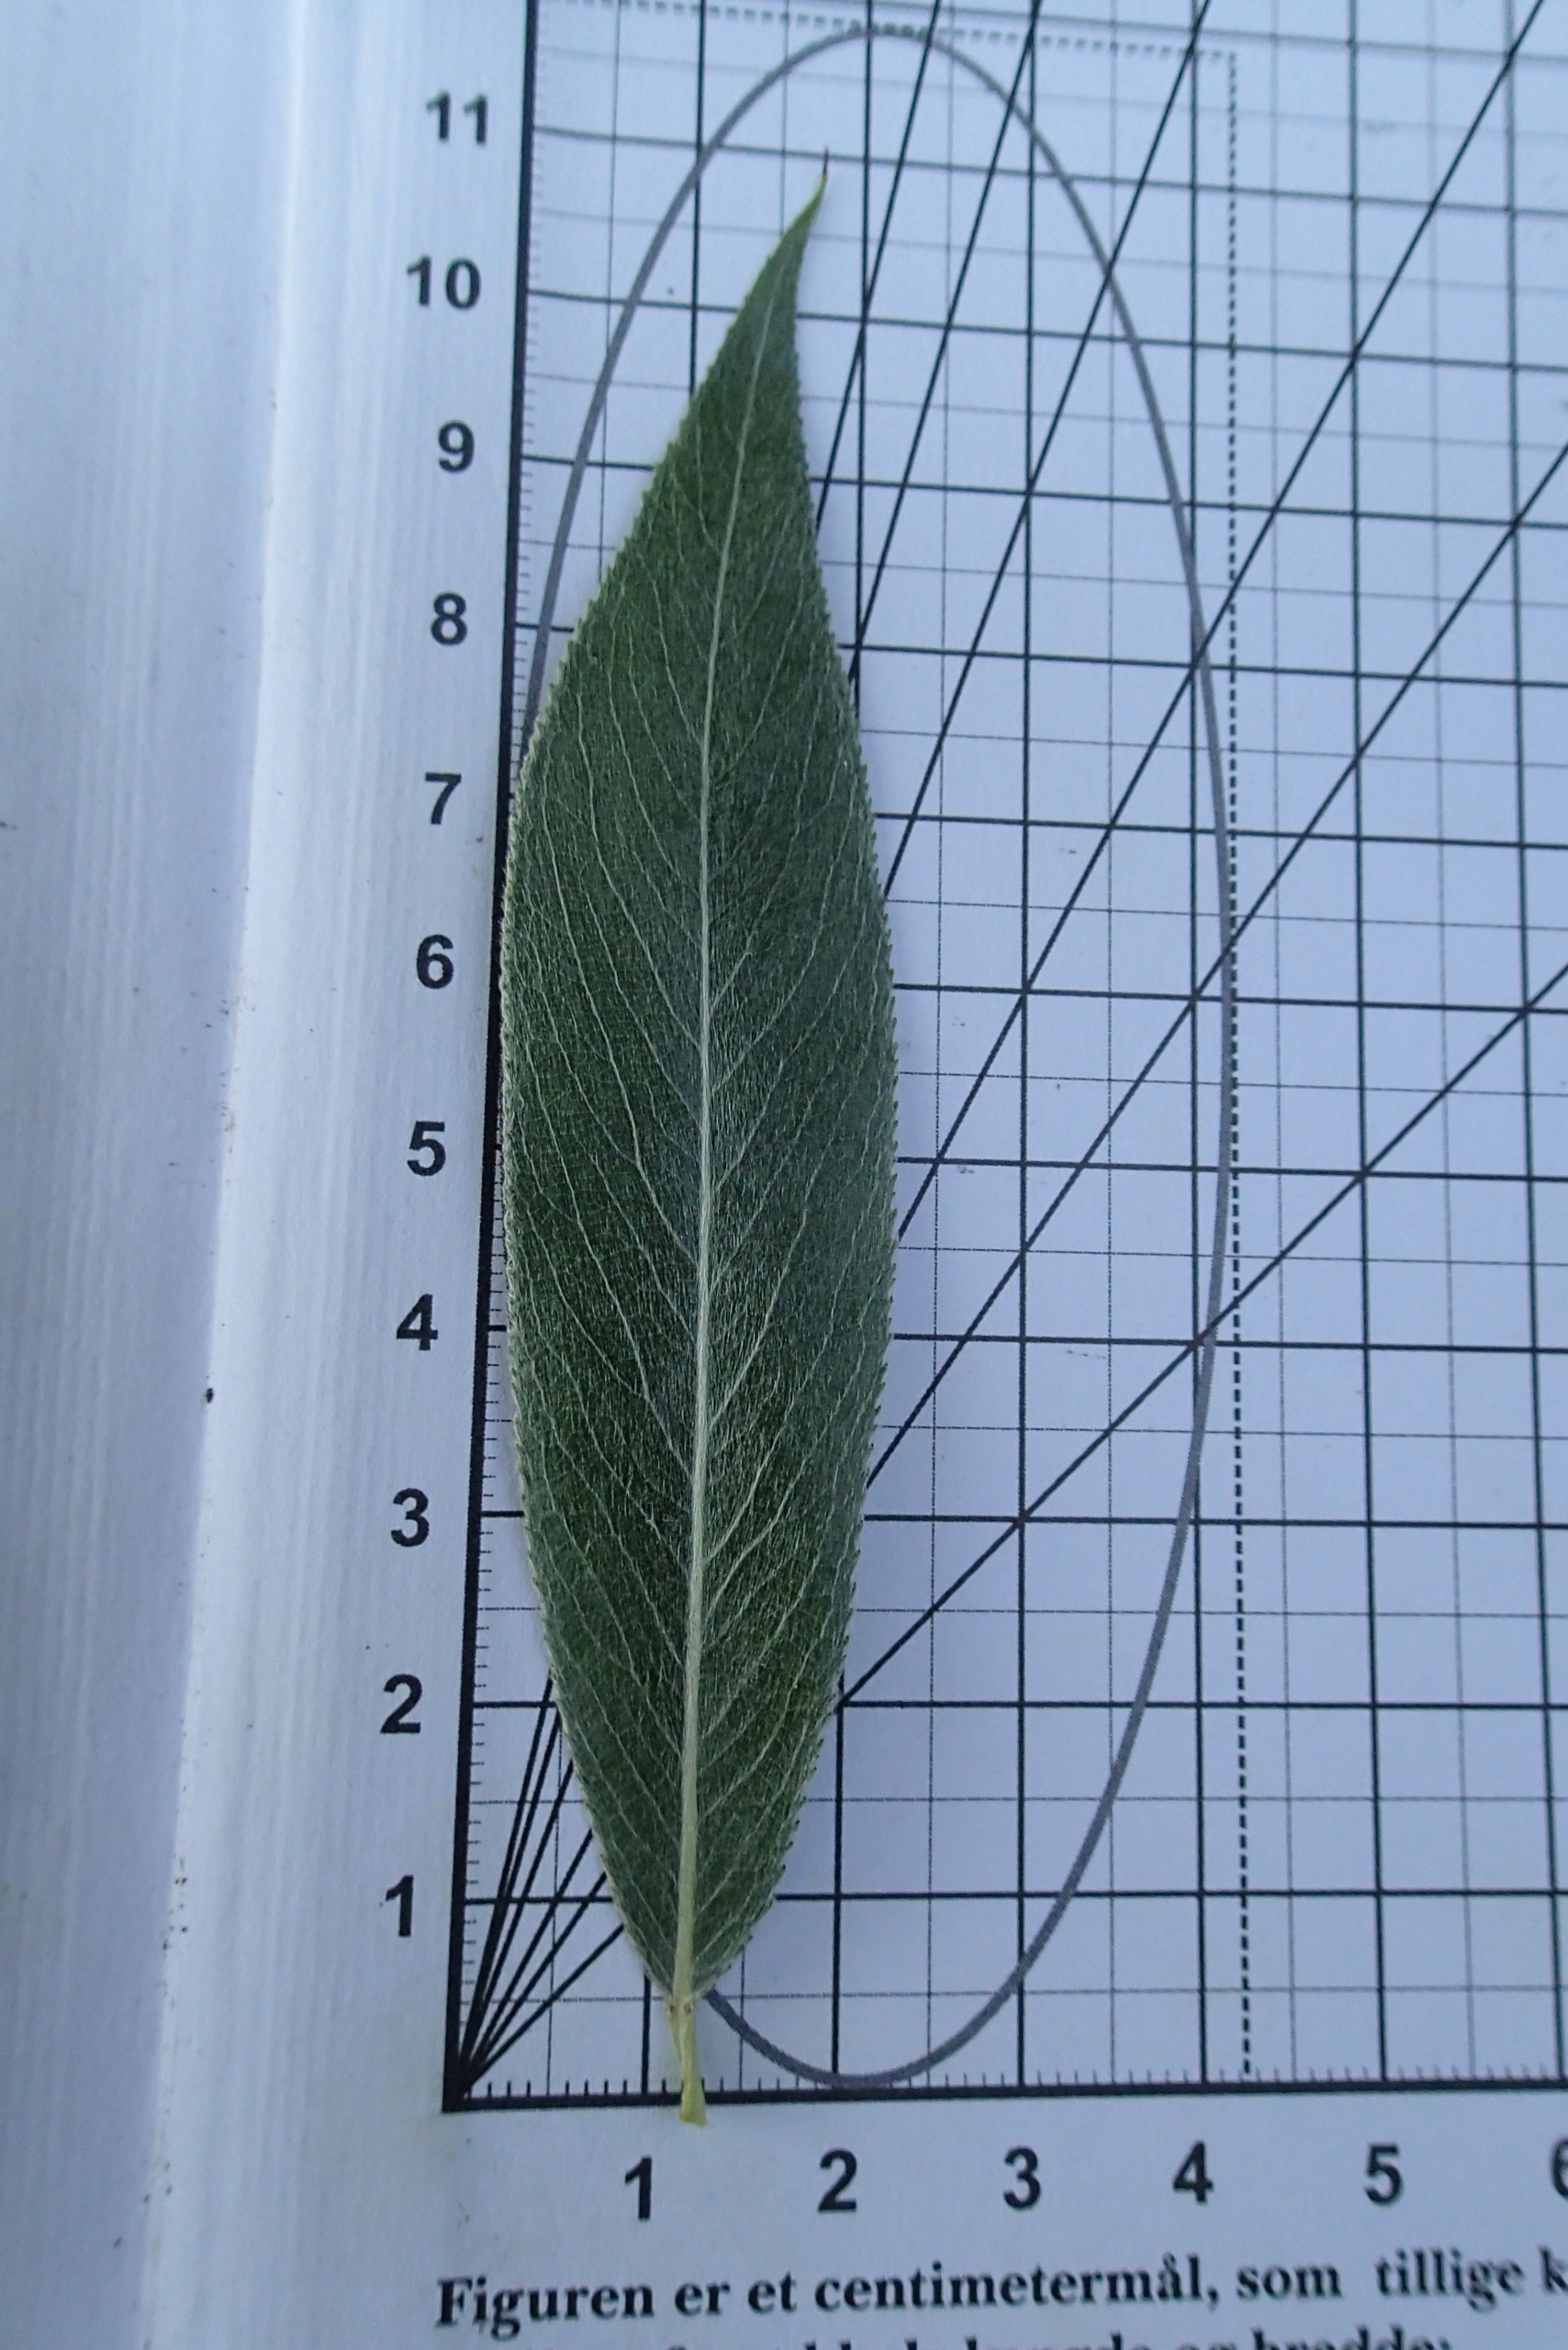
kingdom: Plantae
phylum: Tracheophyta
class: Magnoliopsida
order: Malpighiales
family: Salicaceae
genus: Salix
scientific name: Salix alba
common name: Hvid-pil
